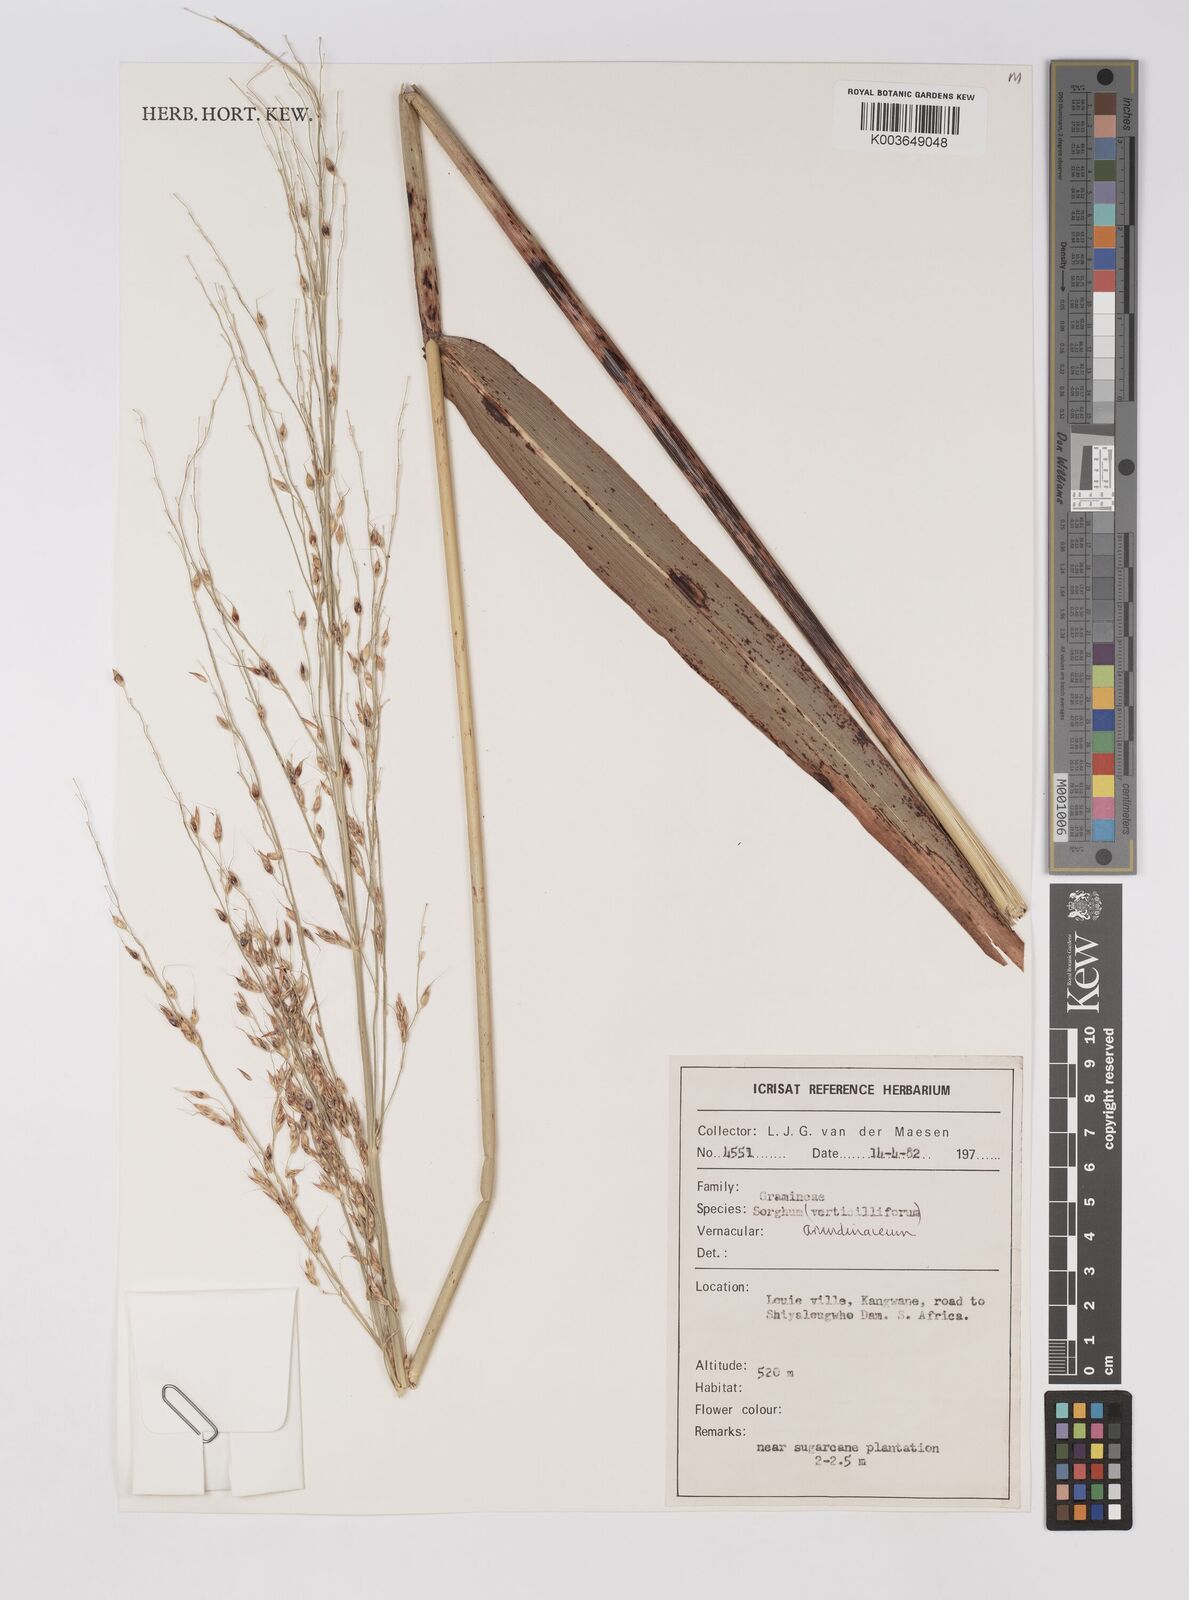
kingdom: Plantae
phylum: Tracheophyta
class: Liliopsida
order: Poales
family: Poaceae
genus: Sorghum
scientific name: Sorghum arundinaceum
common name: Sorghum
